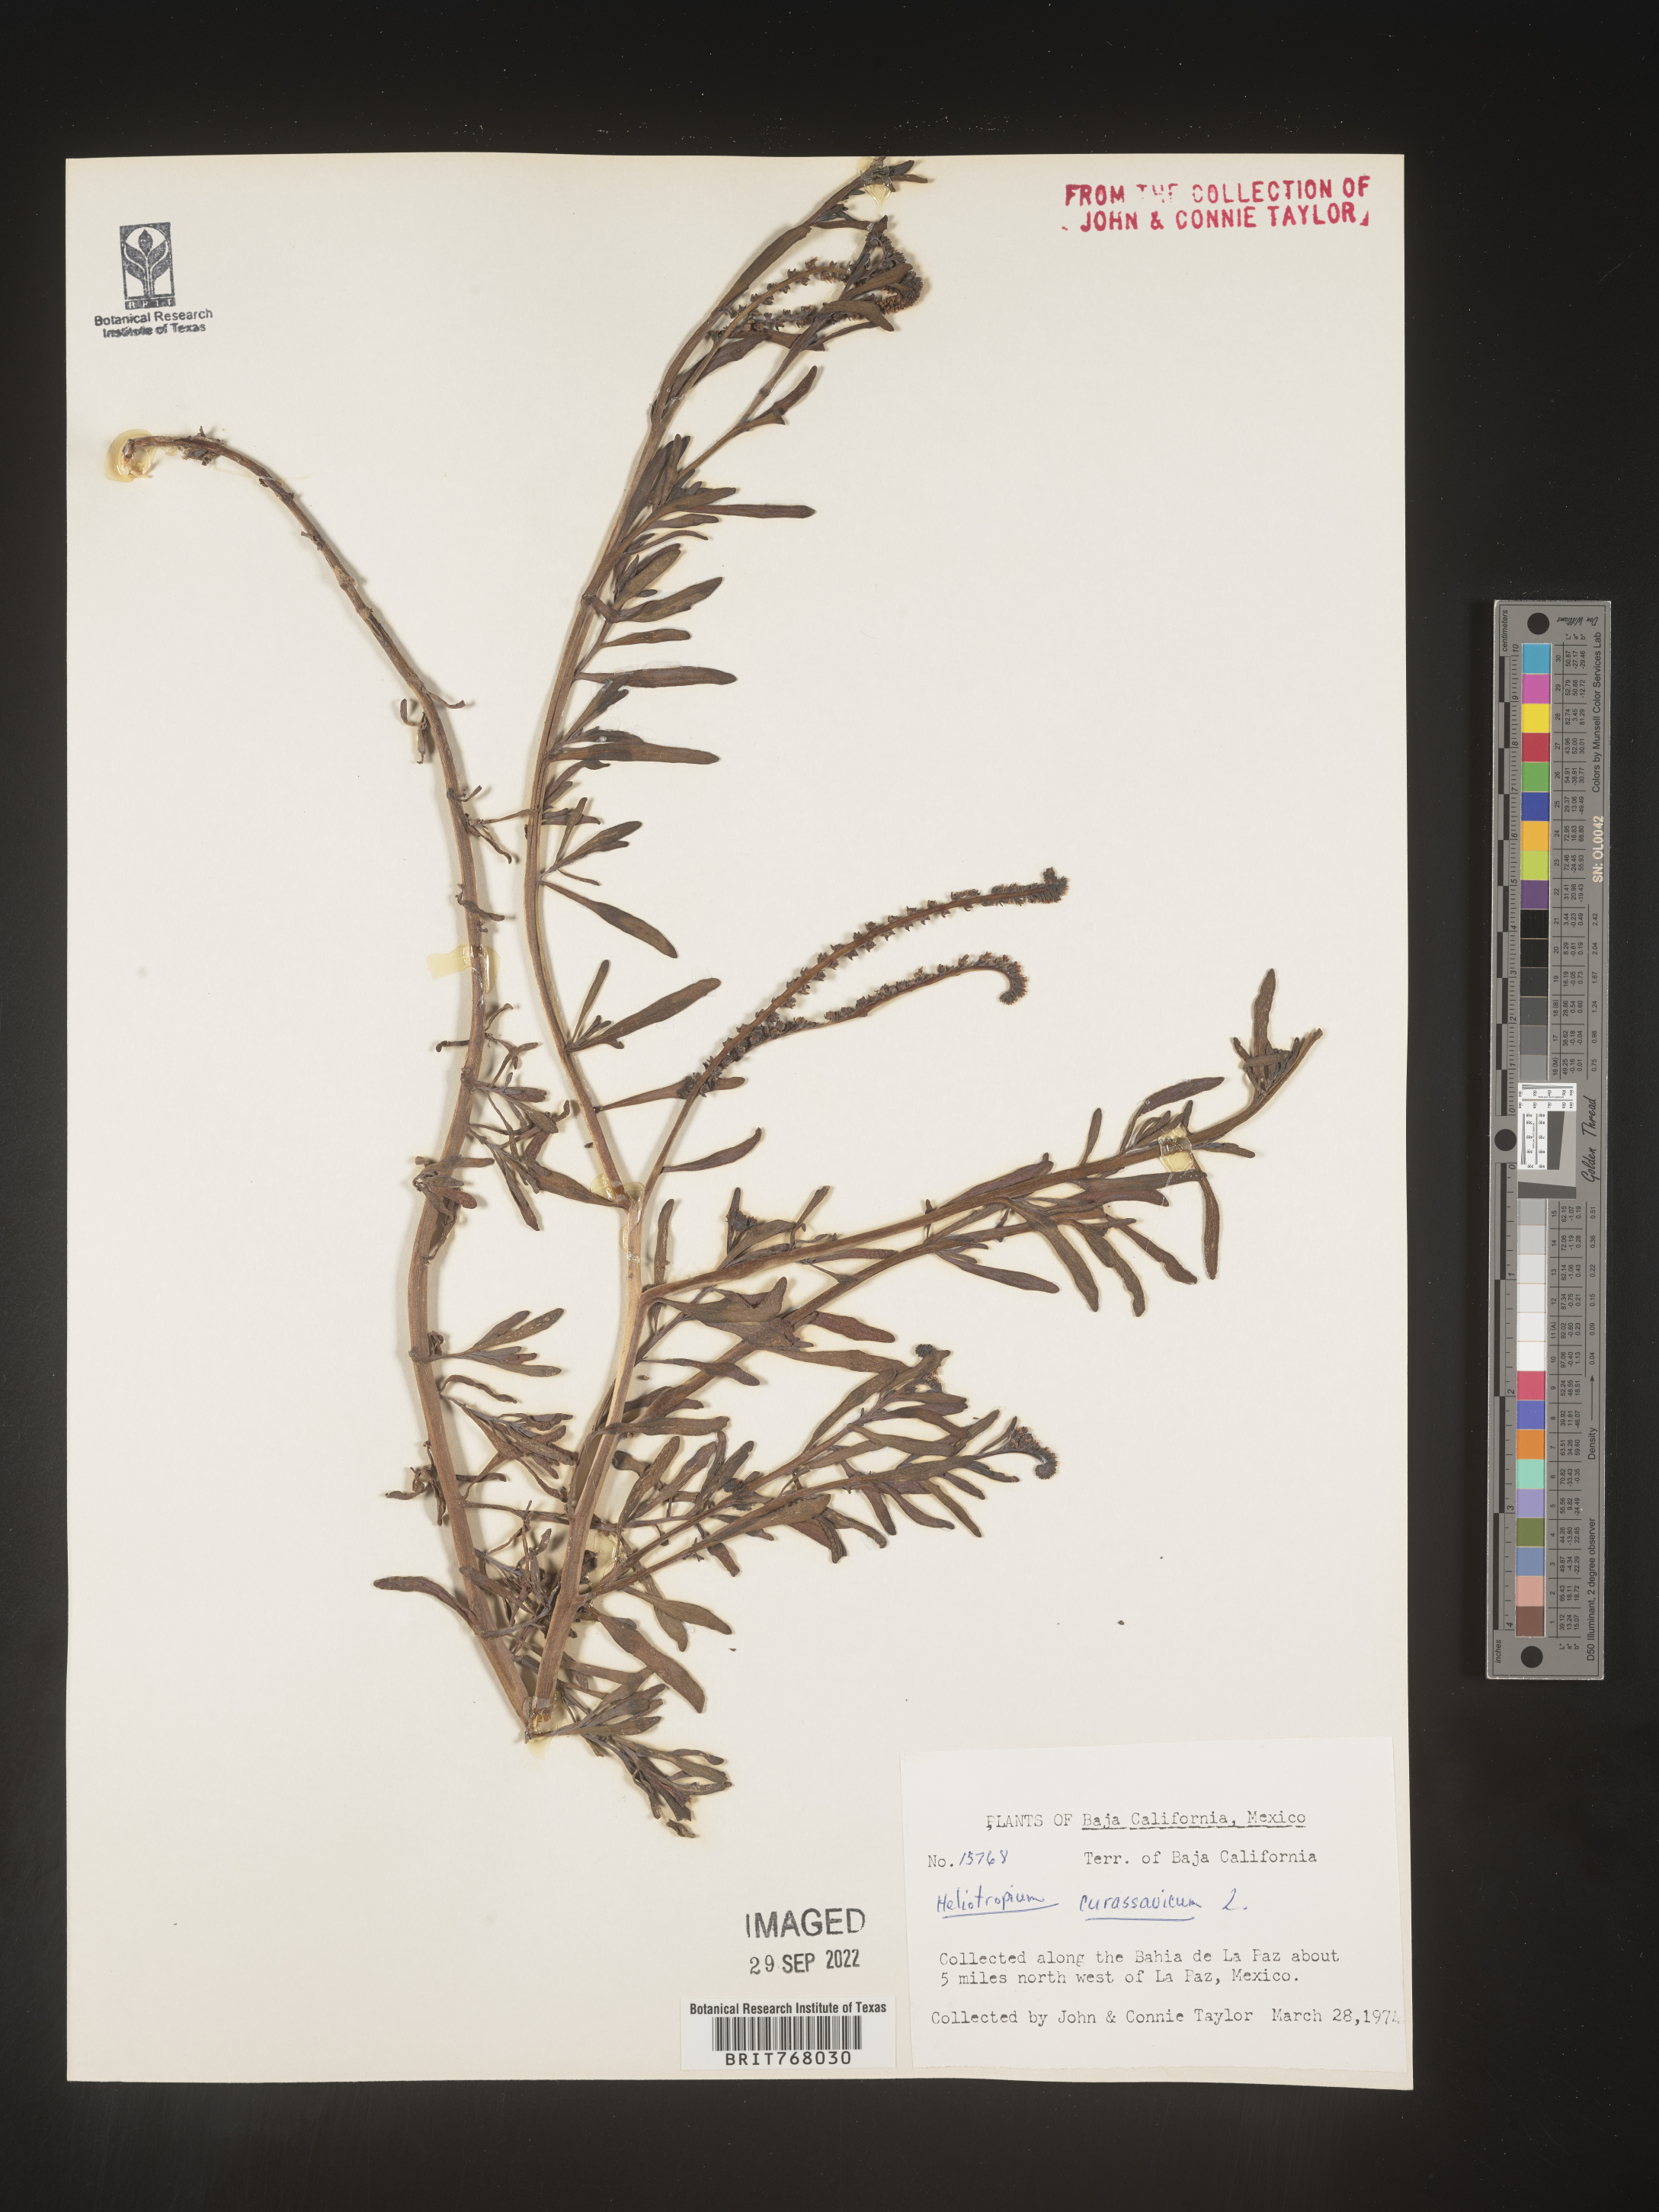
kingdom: Plantae
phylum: Tracheophyta
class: Magnoliopsida
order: Boraginales
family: Heliotropiaceae
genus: Heliotropium
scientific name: Heliotropium curassavicum
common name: Seaside heliotrope
